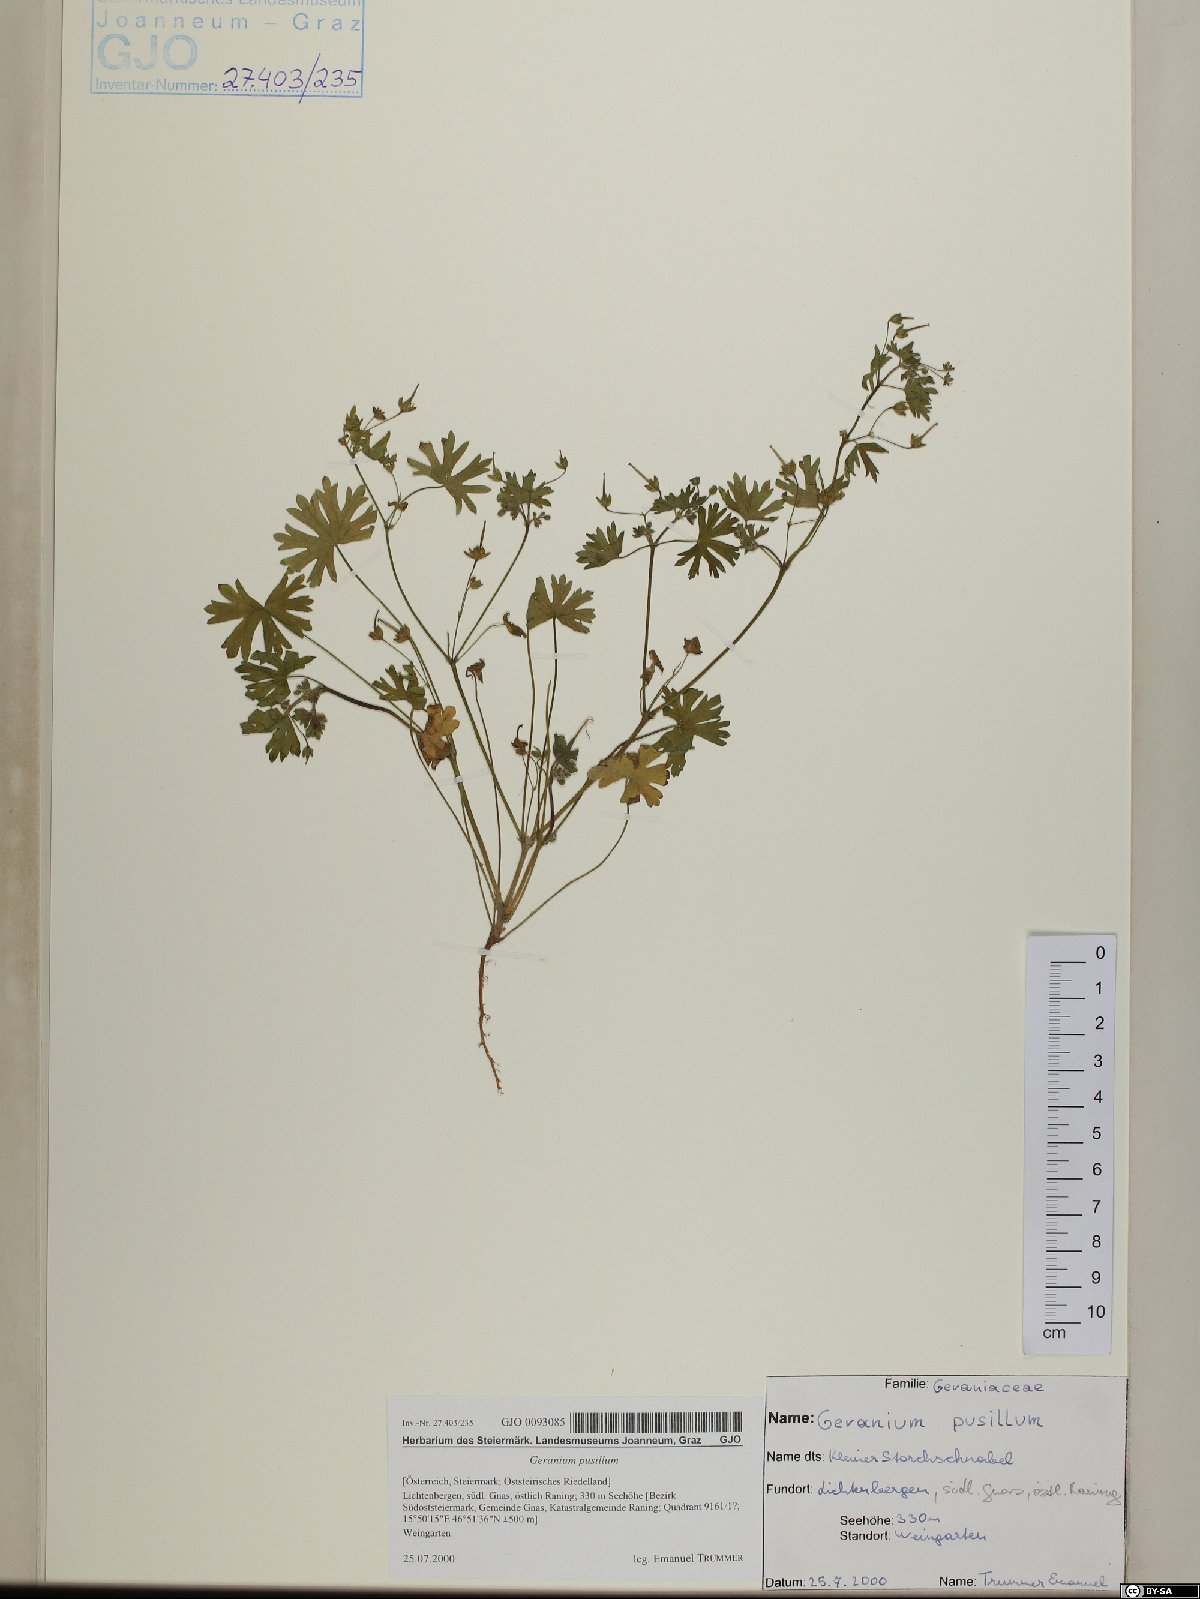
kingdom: Plantae
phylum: Tracheophyta
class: Magnoliopsida
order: Geraniales
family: Geraniaceae
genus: Geranium
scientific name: Geranium pusillum
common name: Small geranium
